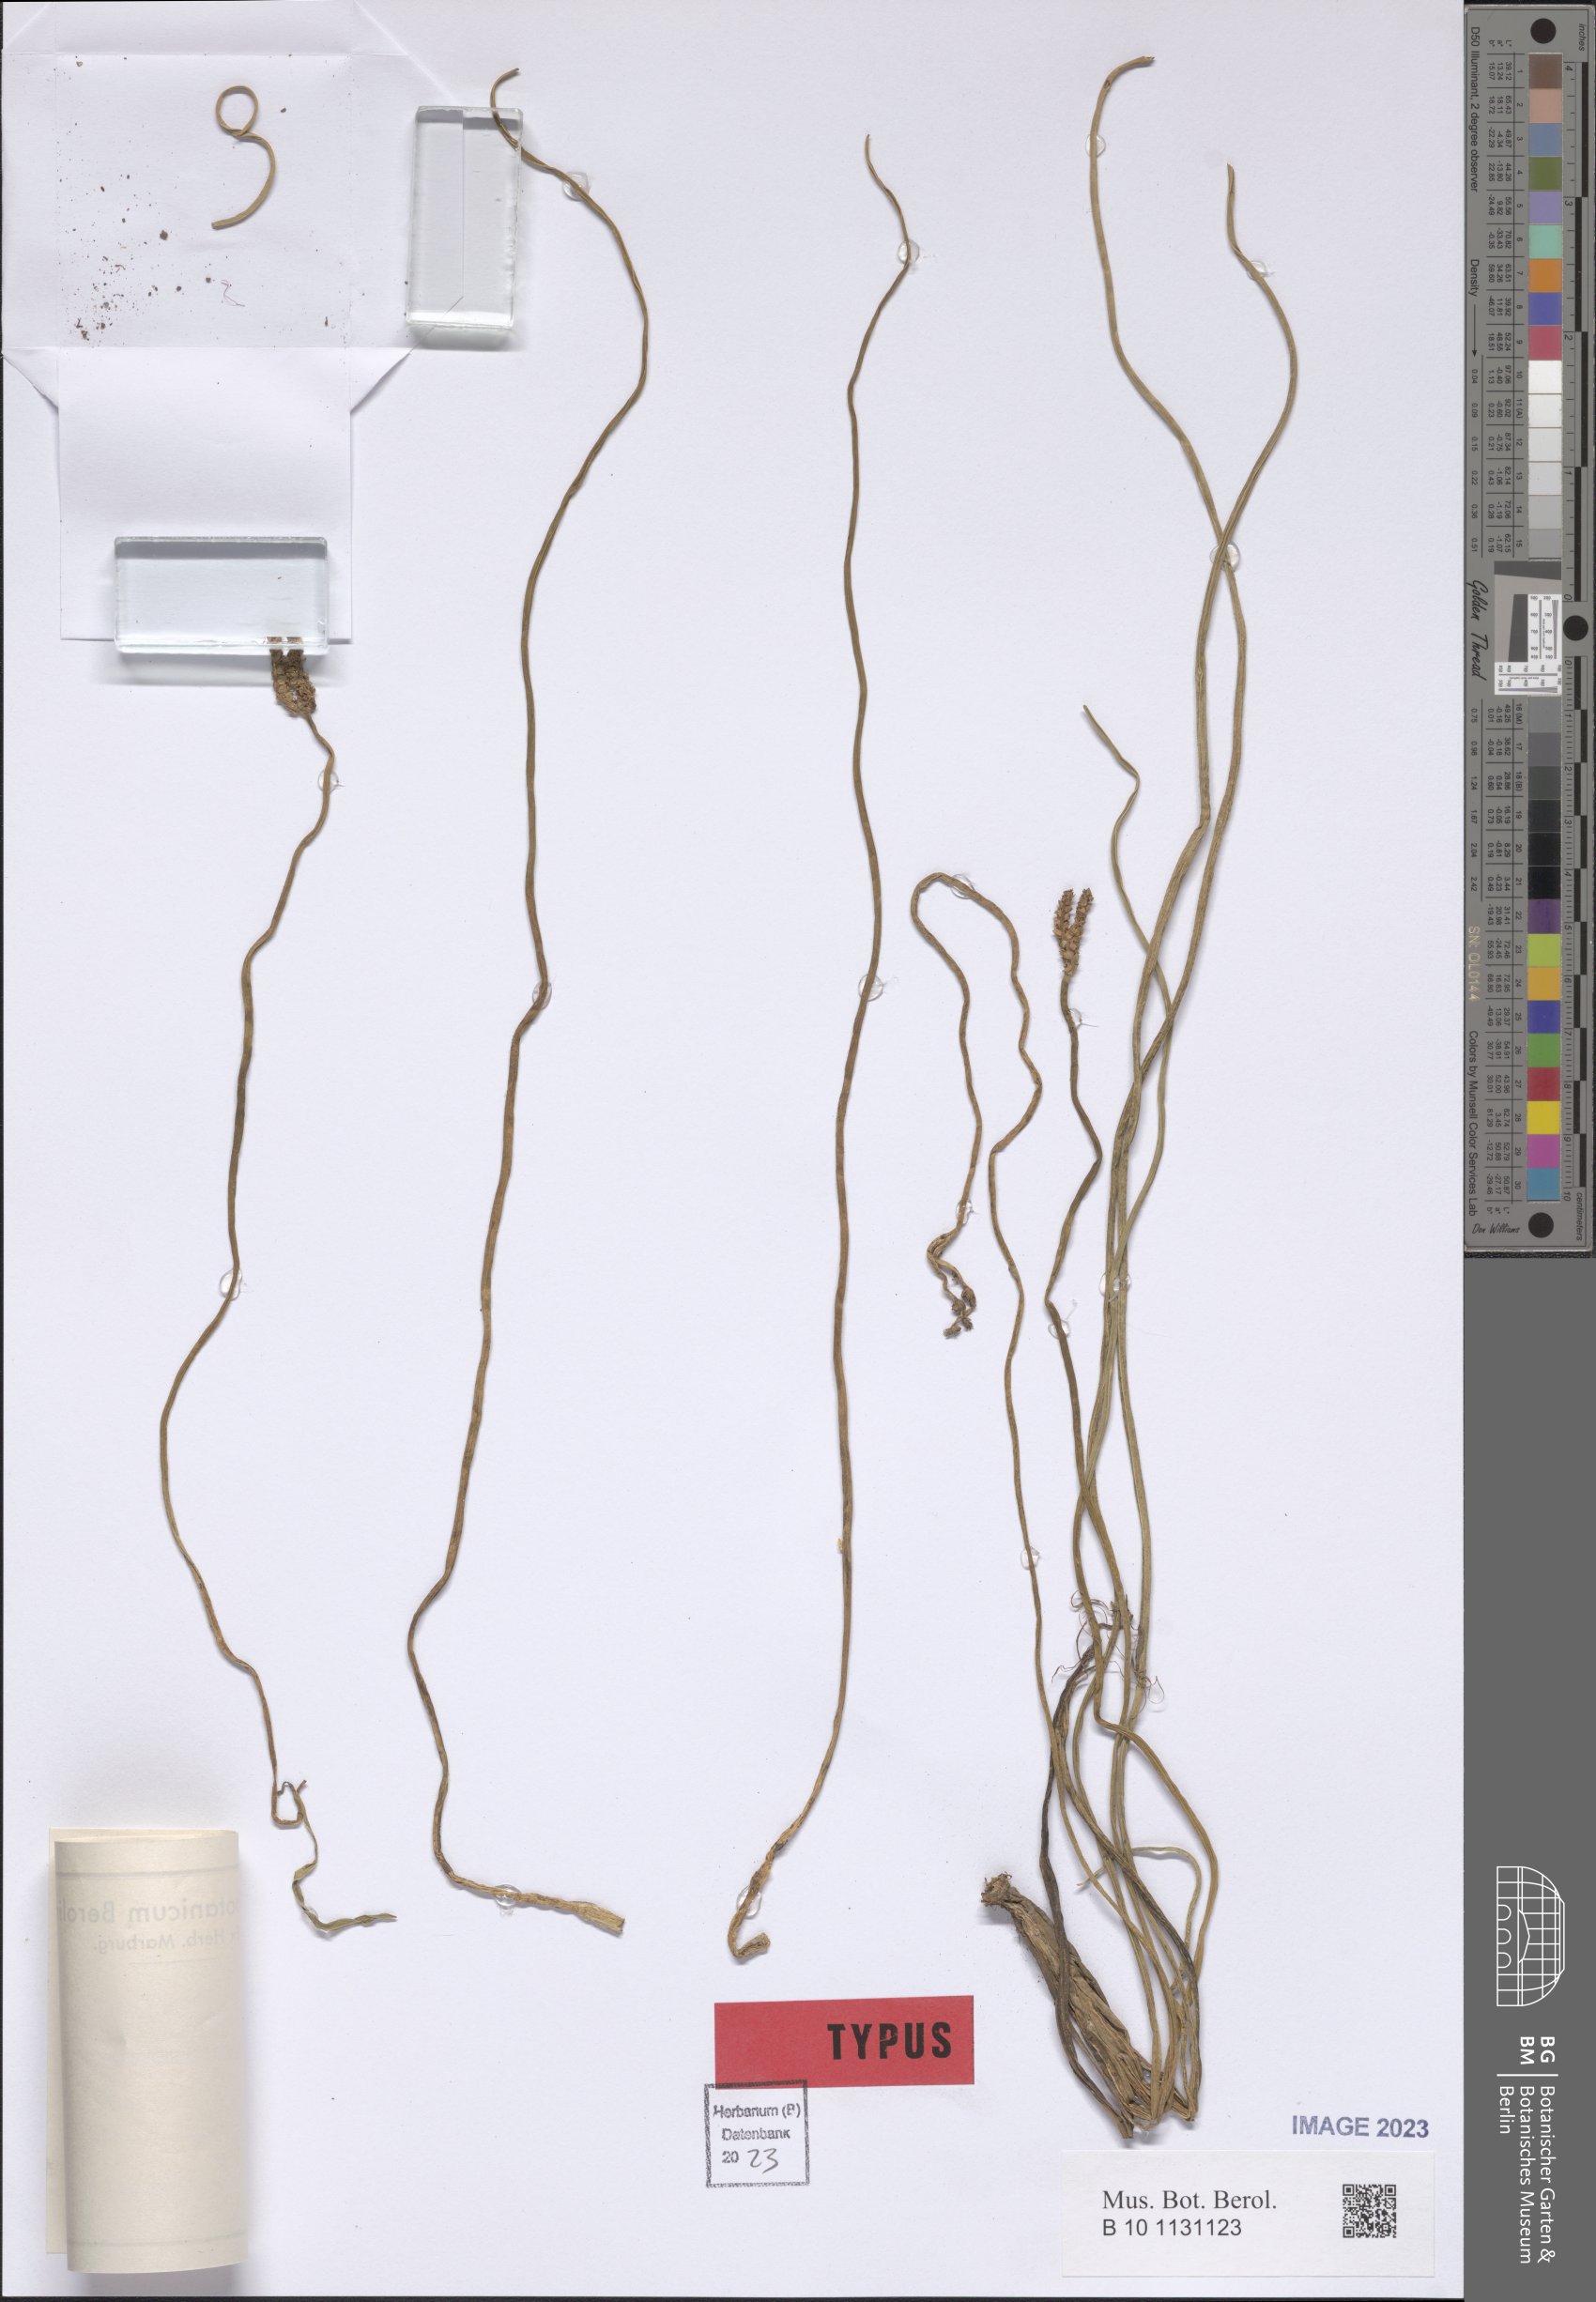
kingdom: Plantae
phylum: Tracheophyta
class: Liliopsida
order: Alismatales
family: Aponogetonaceae
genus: Aponogeton
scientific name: Aponogeton junceus
